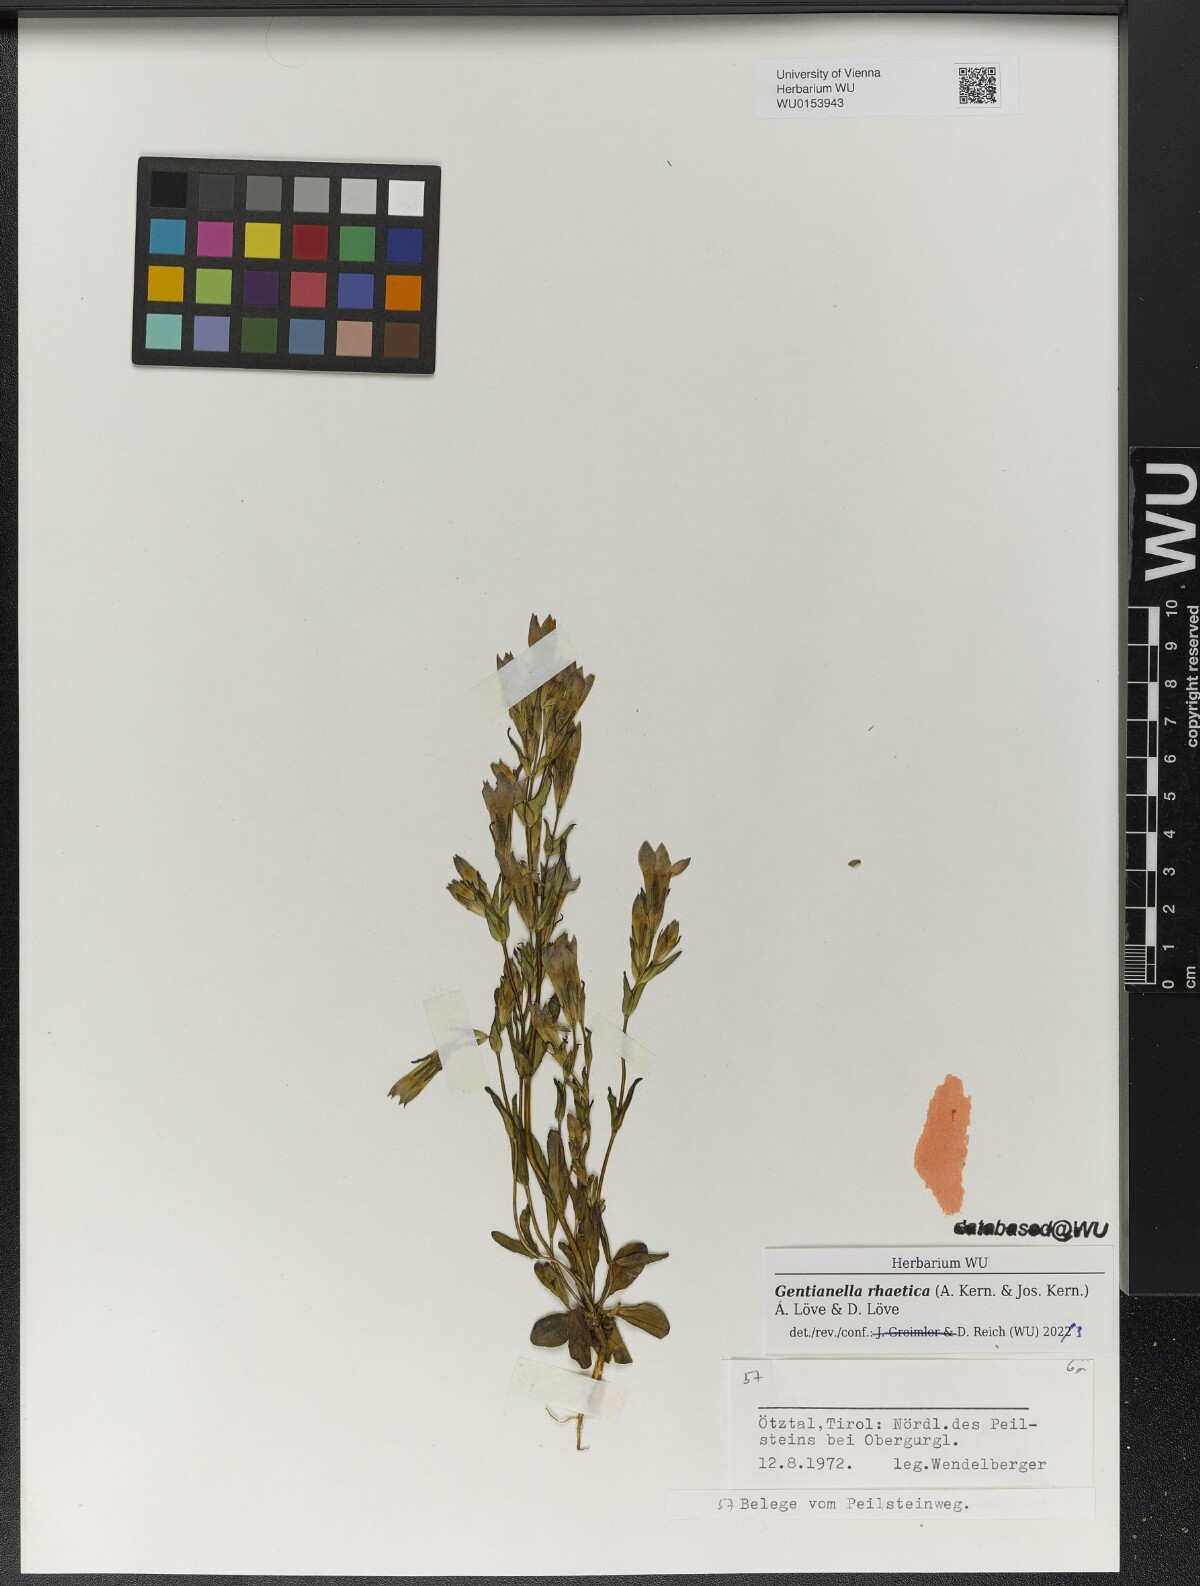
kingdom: Plantae
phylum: Tracheophyta
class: Magnoliopsida
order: Gentianales
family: Gentianaceae
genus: Gentianella
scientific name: Gentianella rhaetica
